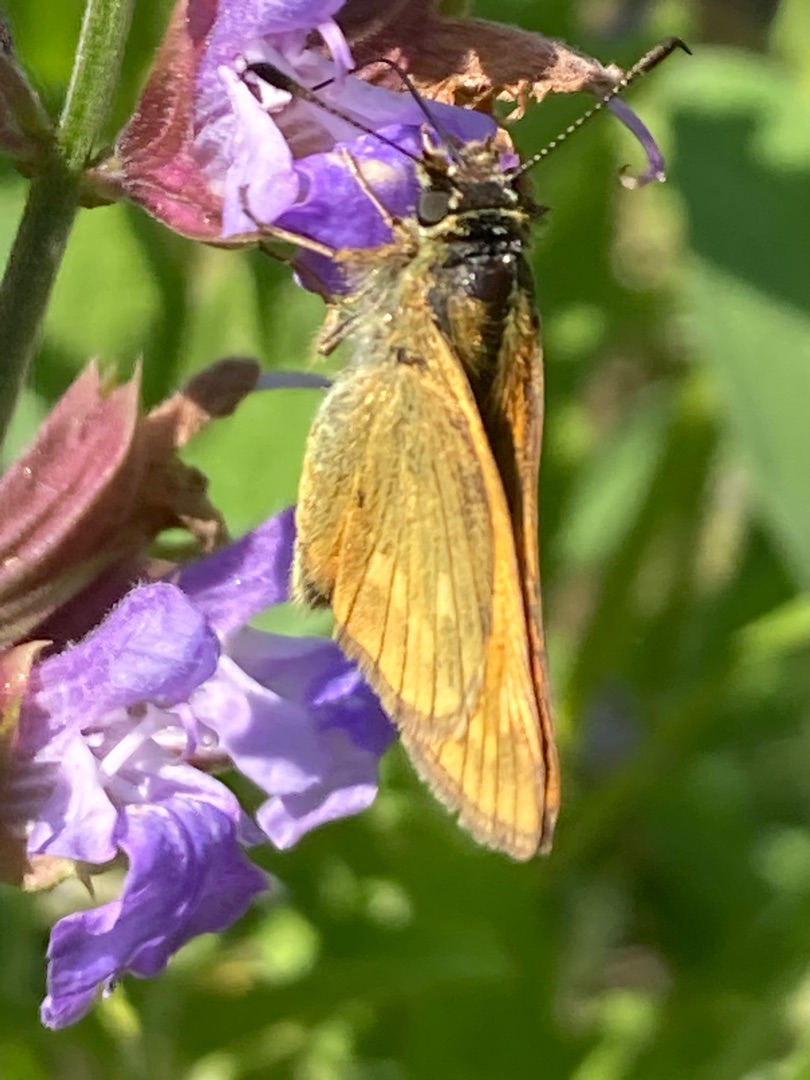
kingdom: Animalia
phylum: Arthropoda
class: Insecta
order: Lepidoptera
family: Hesperiidae
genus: Ochlodes
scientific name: Ochlodes venata
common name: Stor bredpande
